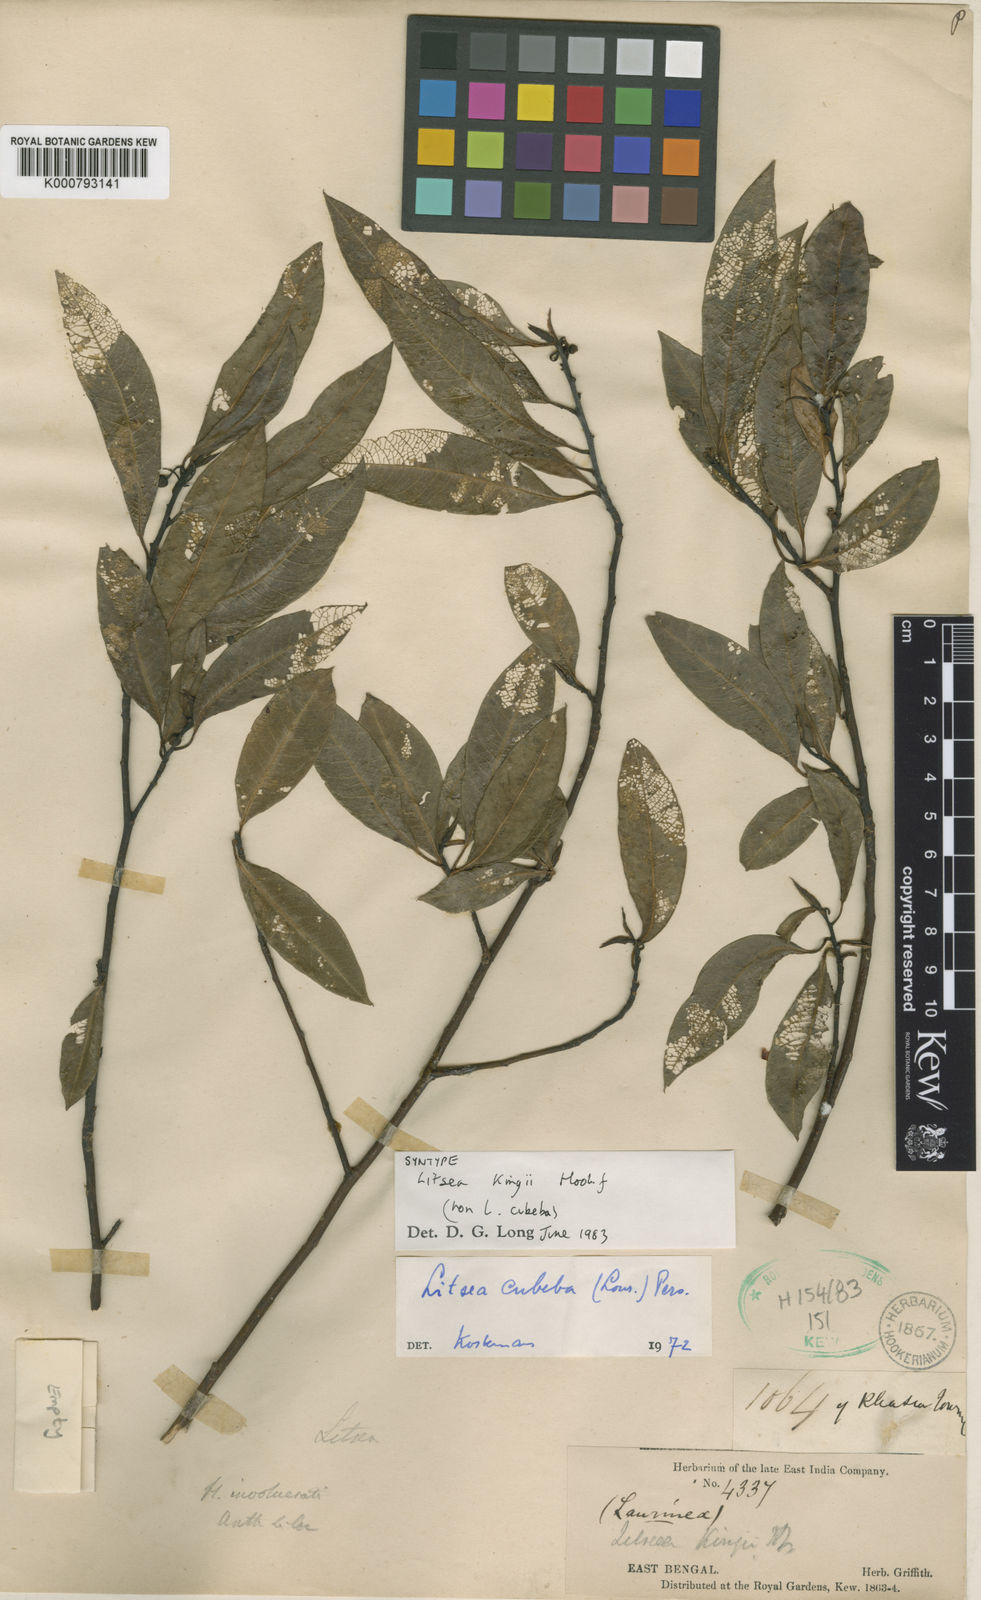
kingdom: Plantae
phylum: Tracheophyta
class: Magnoliopsida
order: Laurales
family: Lauraceae
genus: Litsea
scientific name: Litsea kingii
